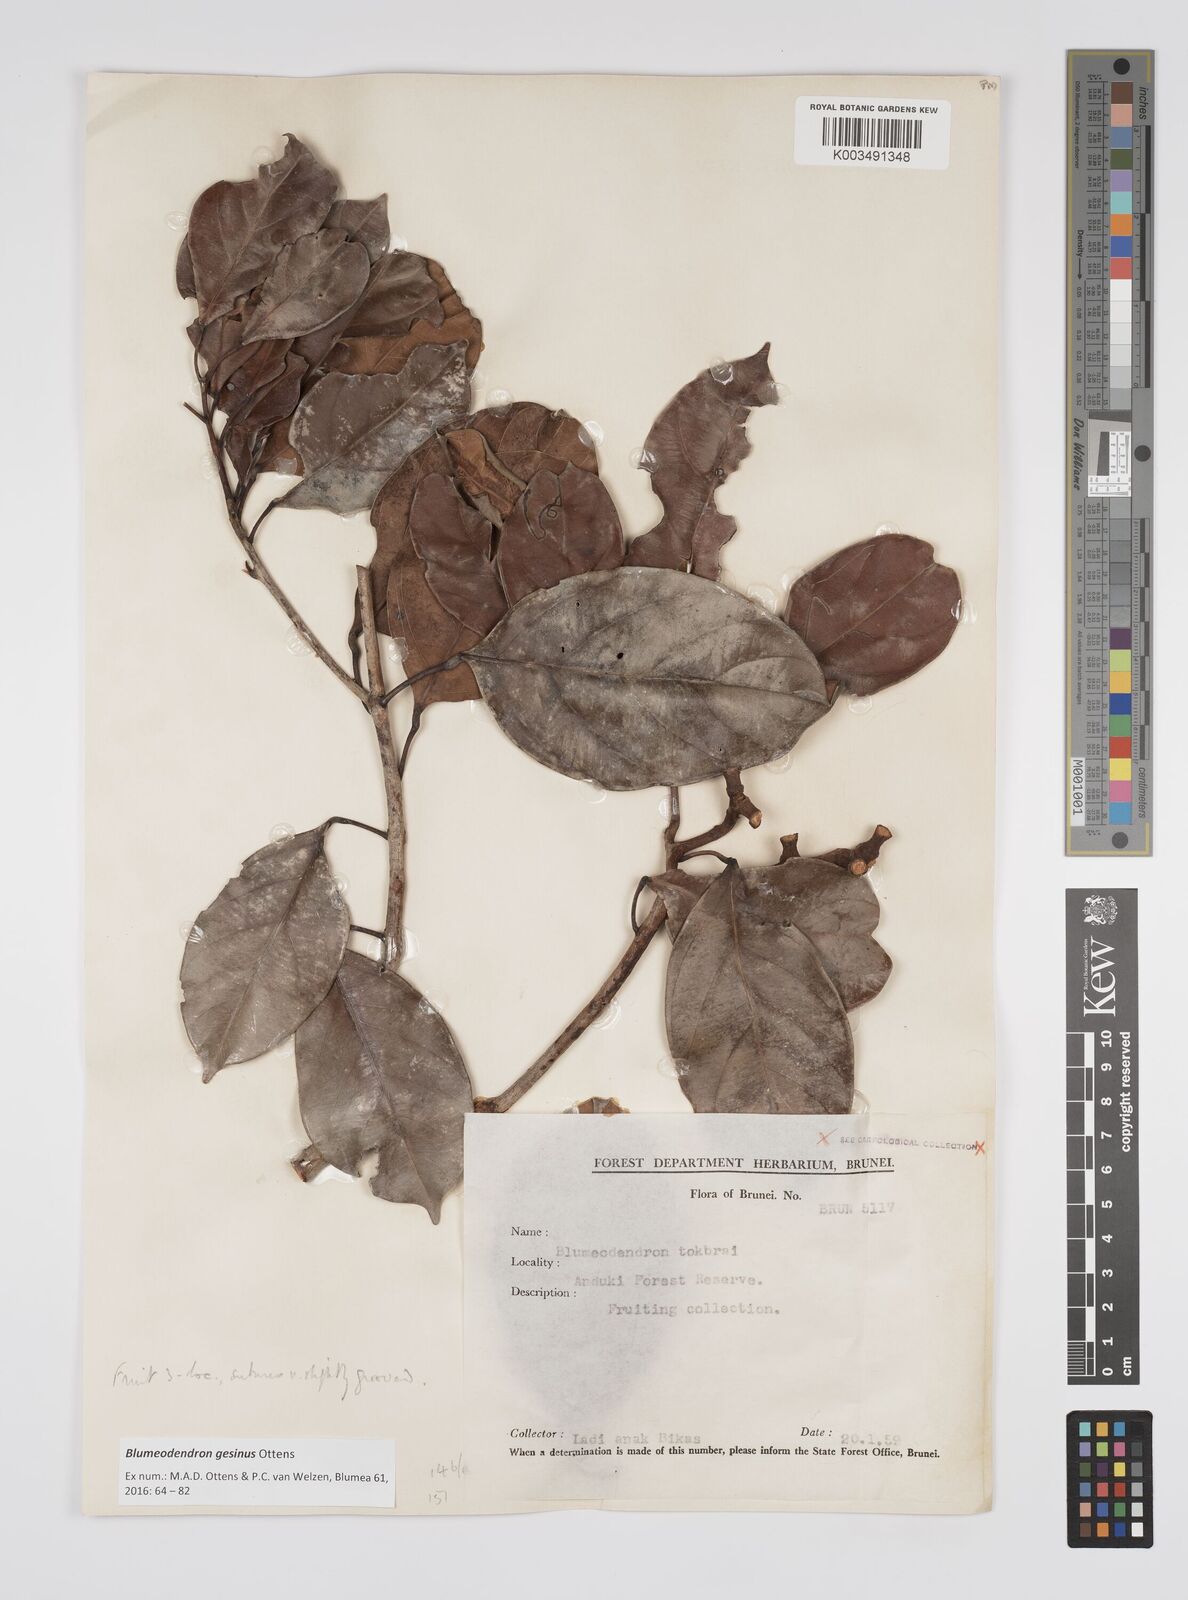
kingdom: Plantae
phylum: Tracheophyta
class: Magnoliopsida
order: Malpighiales
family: Euphorbiaceae
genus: Blumeodendron
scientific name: Blumeodendron gesinus
